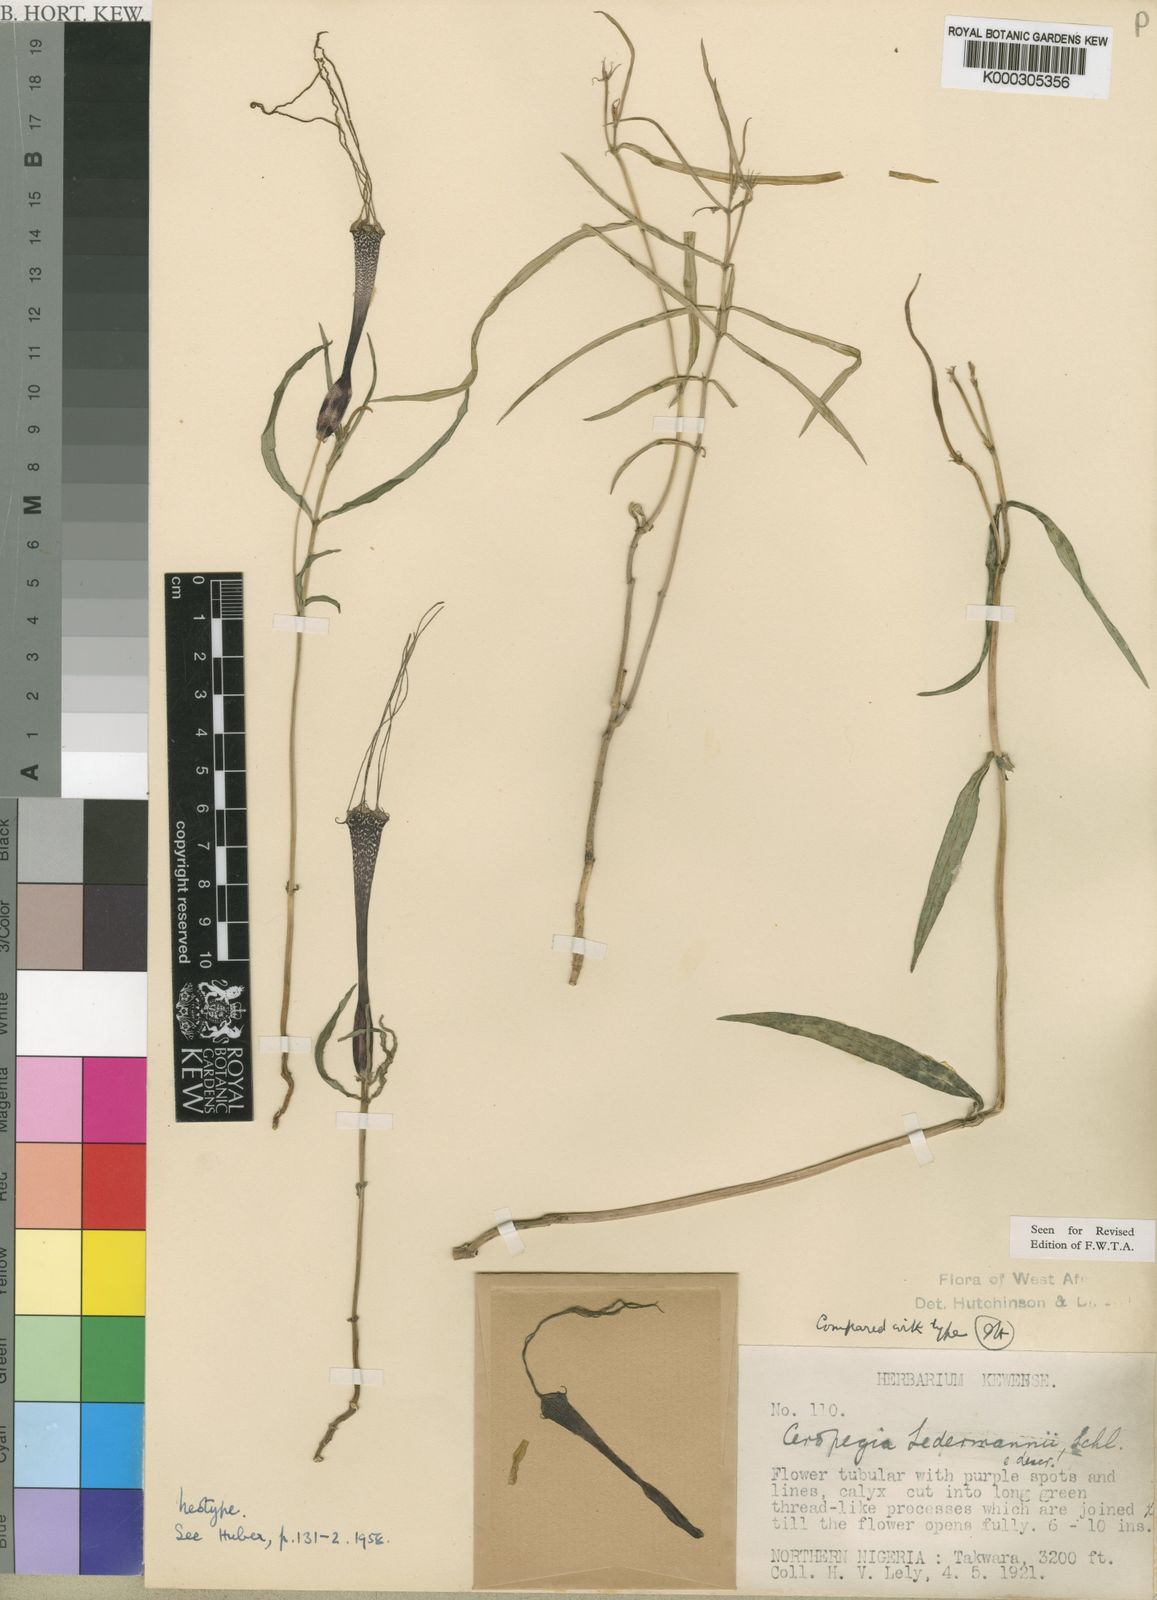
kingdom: Plantae
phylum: Tracheophyta
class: Magnoliopsida
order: Gentianales
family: Apocynaceae
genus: Ceropegia
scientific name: Ceropegia ledermannii
